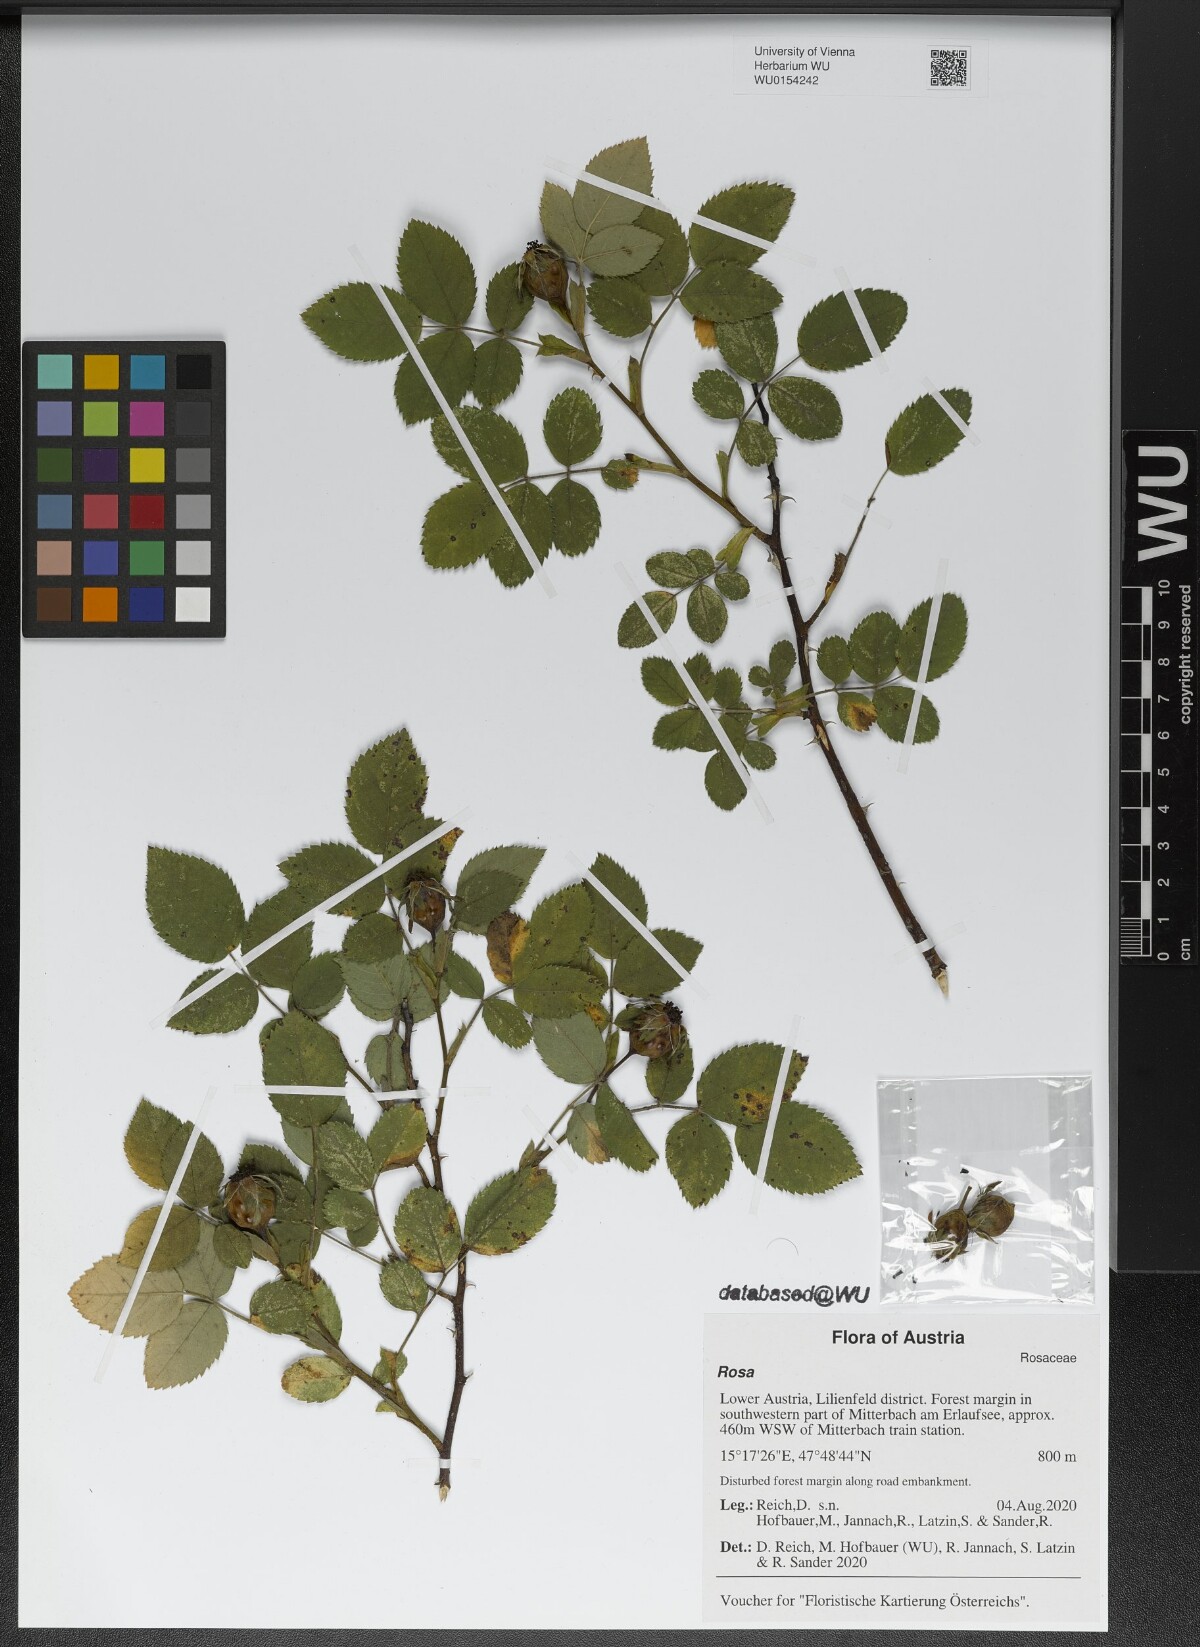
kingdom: Plantae
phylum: Tracheophyta
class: Magnoliopsida
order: Rosales
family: Rosaceae
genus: Rosa
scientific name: Rosa
